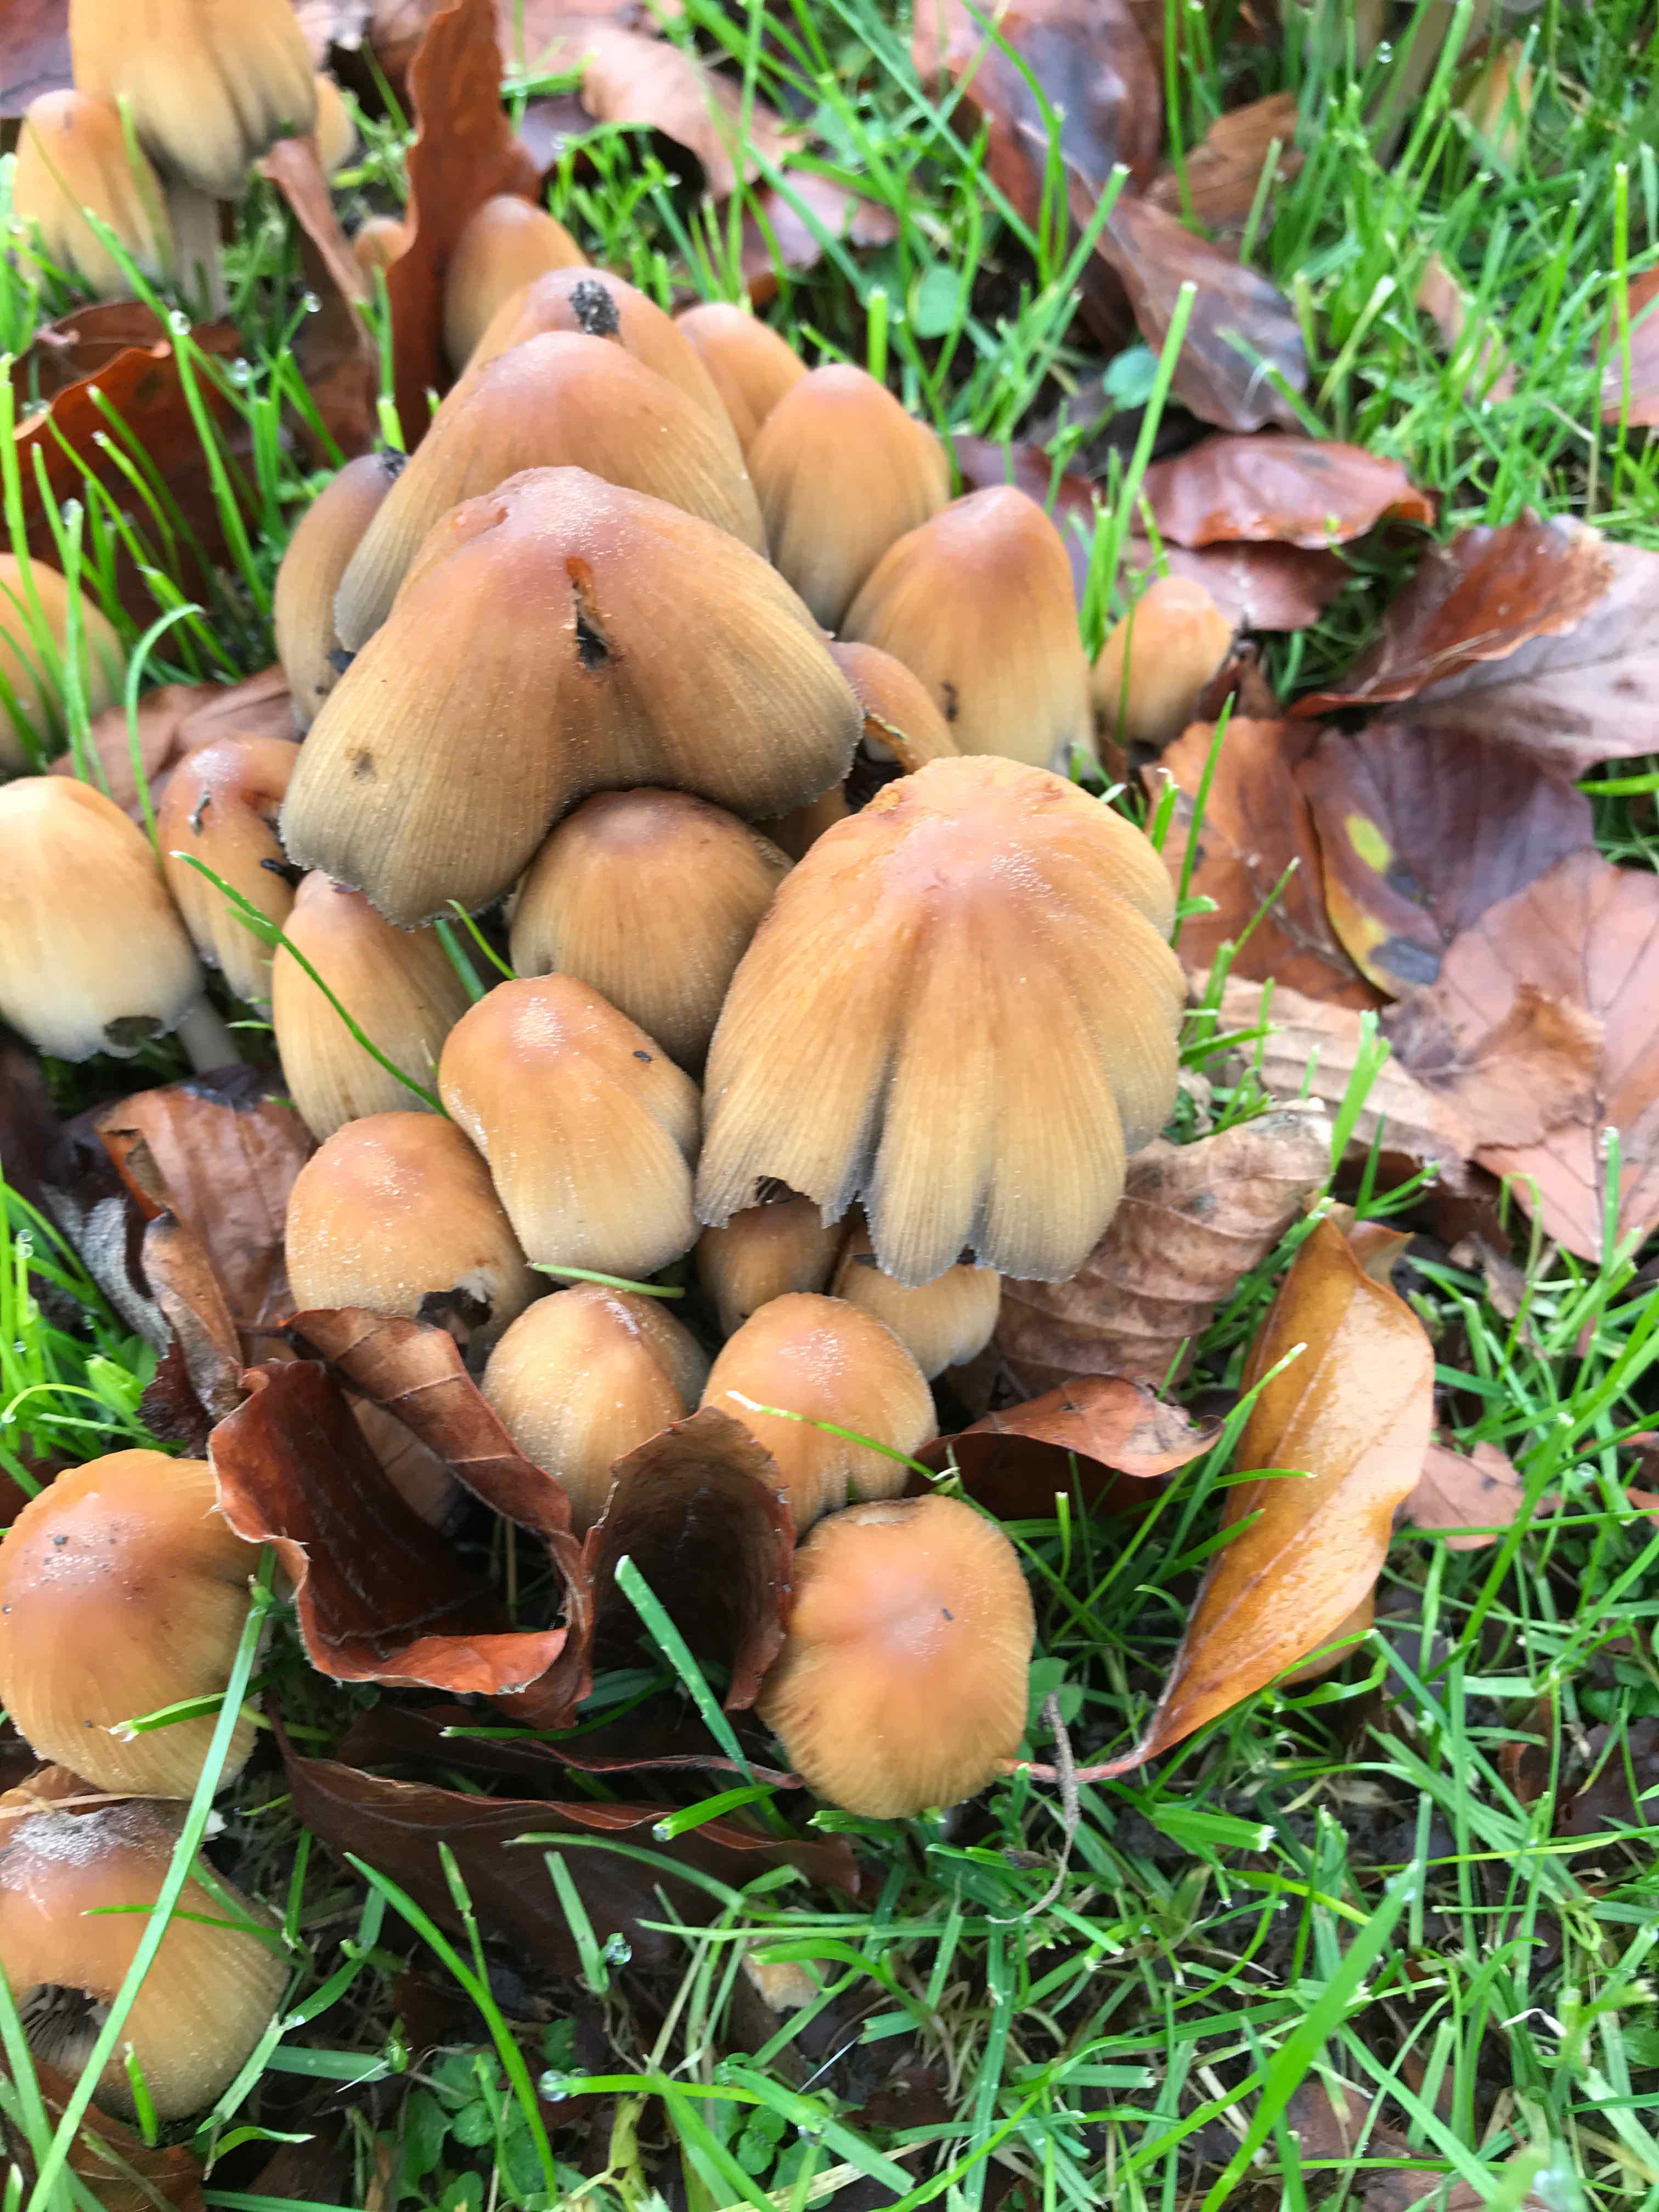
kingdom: Fungi
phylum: Basidiomycota
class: Agaricomycetes
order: Agaricales
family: Psathyrellaceae
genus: Coprinellus
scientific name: Coprinellus micaceus
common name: glimmer-blækhat
